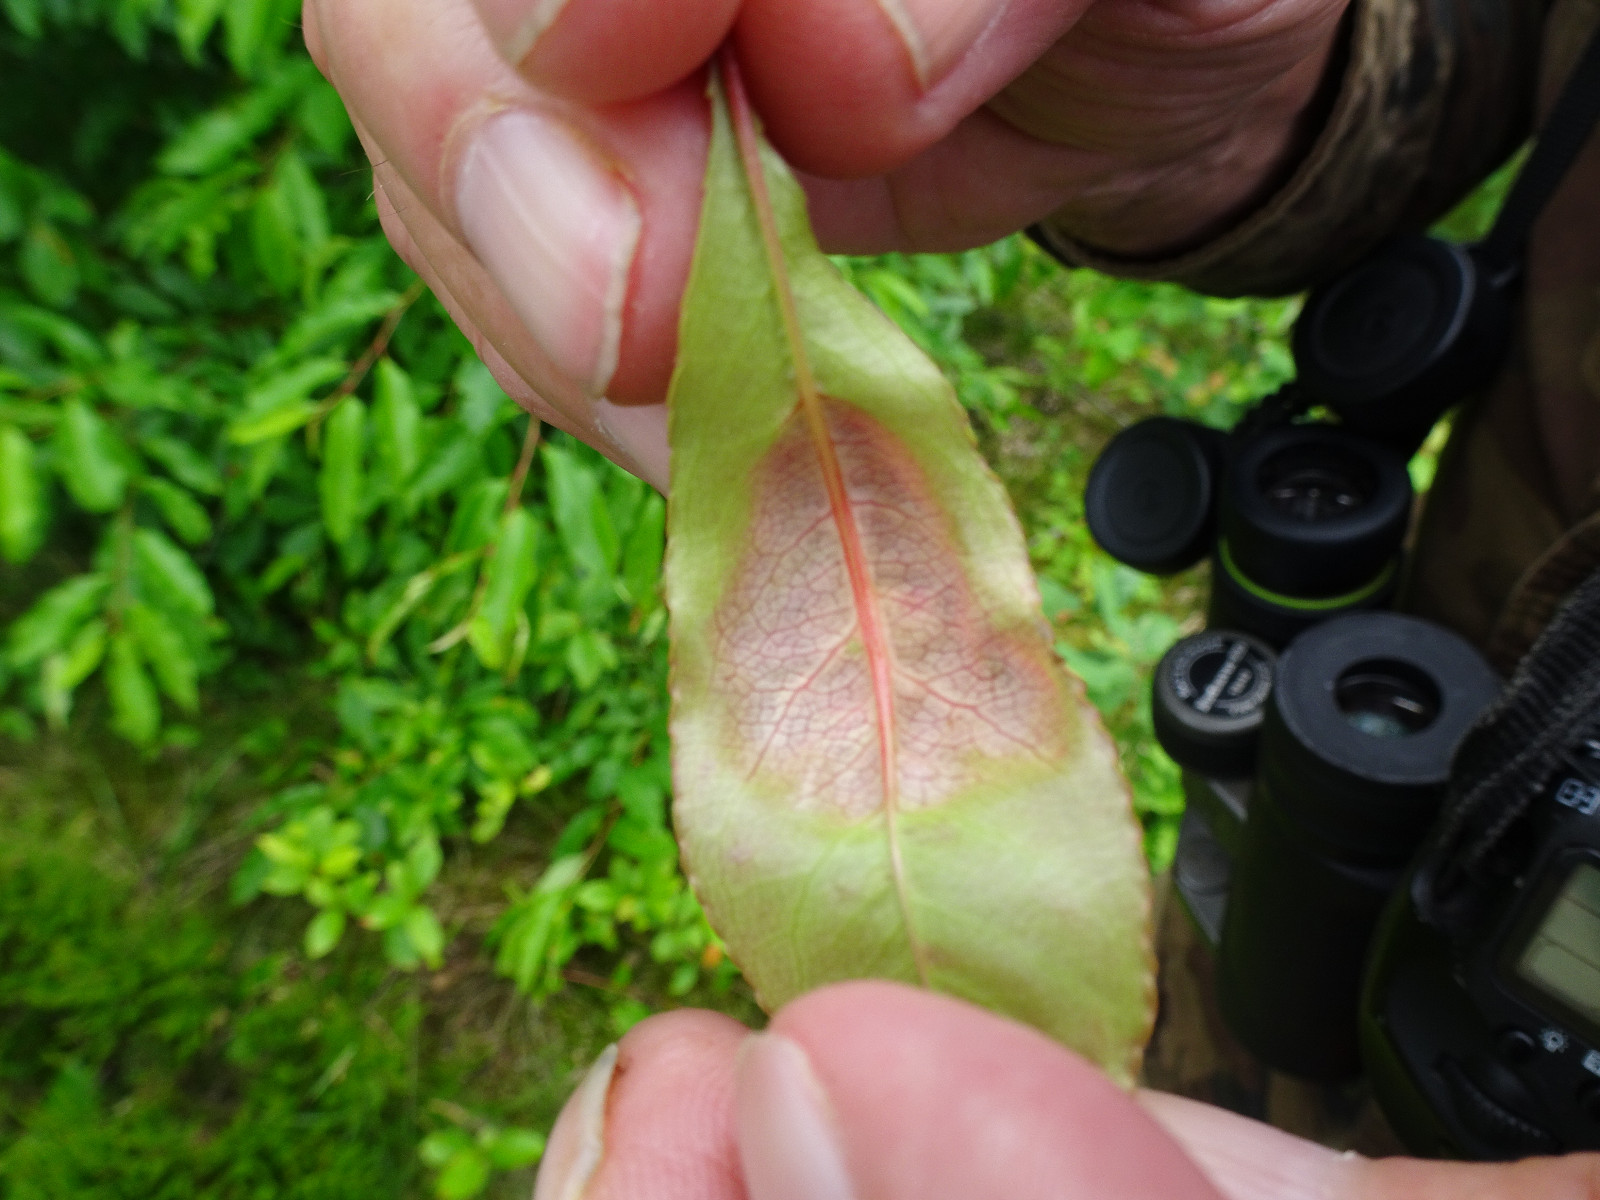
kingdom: Fungi
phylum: Ascomycota
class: Taphrinomycetes
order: Taphrinales
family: Taphrinaceae
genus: Taphrina
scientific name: Taphrina farlowii
